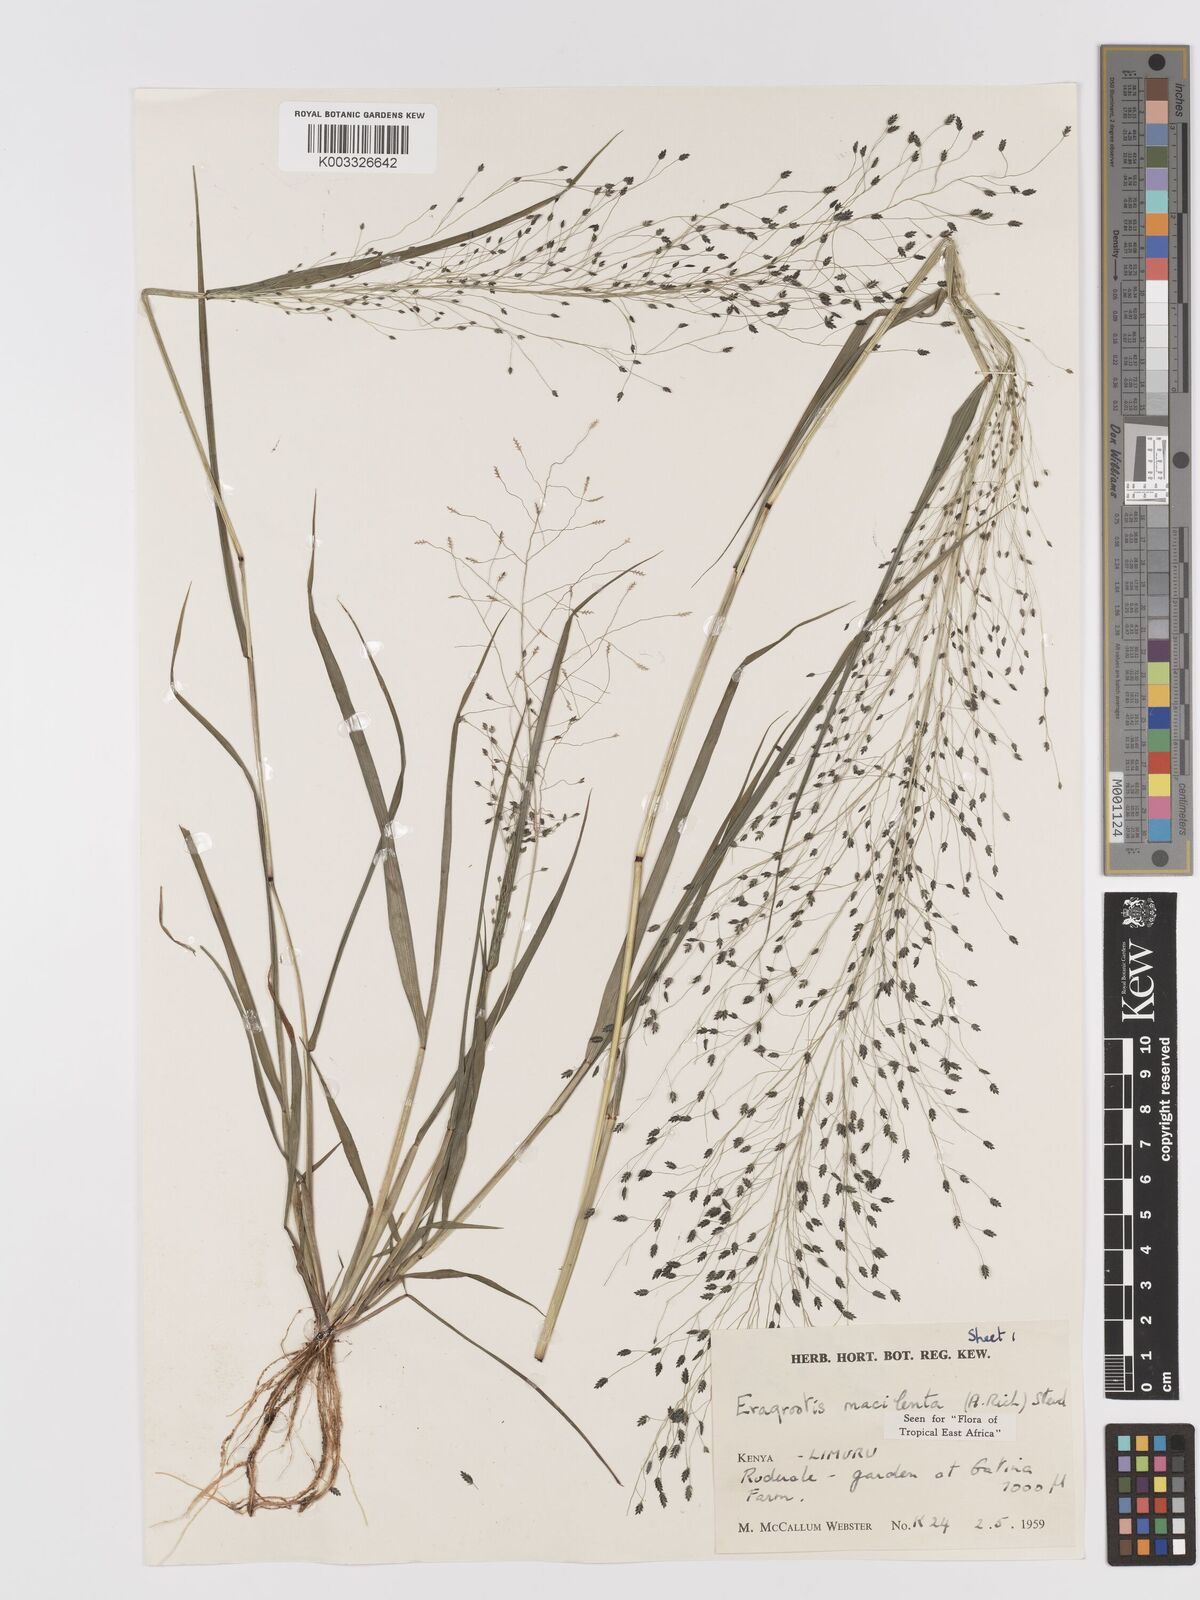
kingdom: Plantae
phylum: Tracheophyta
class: Liliopsida
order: Poales
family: Poaceae
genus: Eragrostis
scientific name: Eragrostis macilenta
